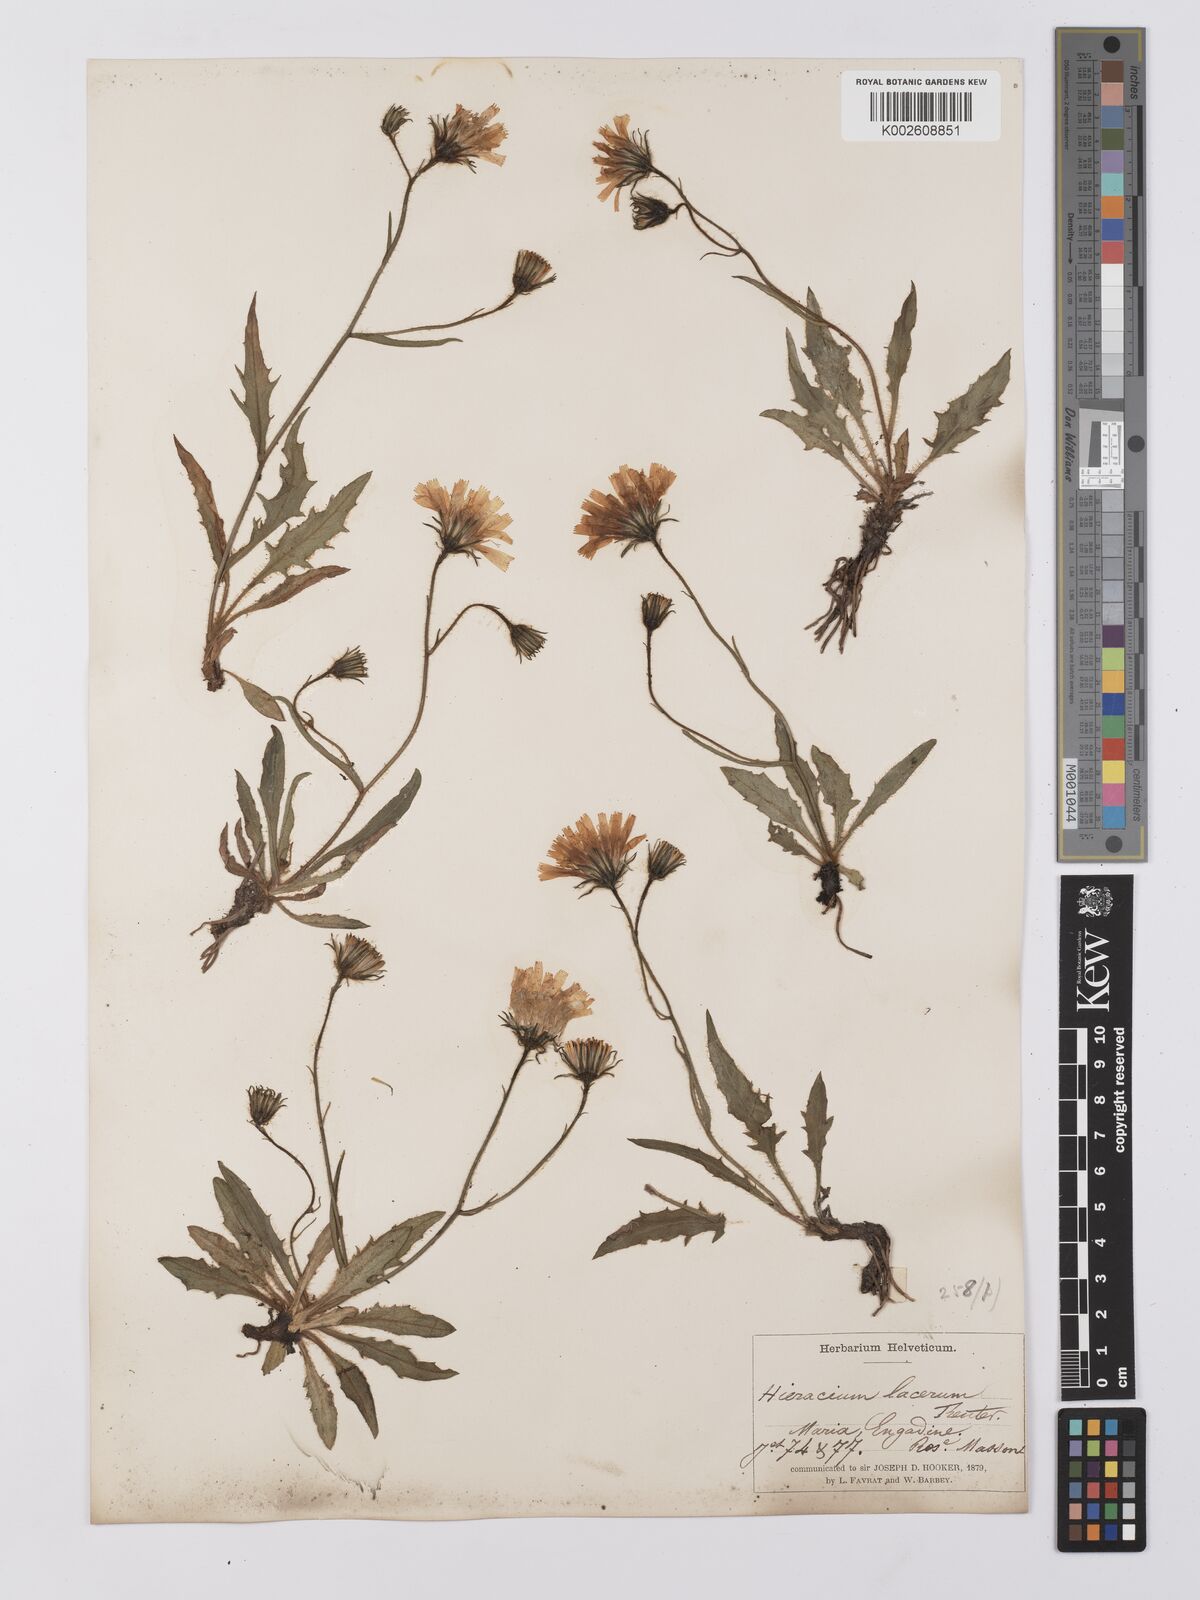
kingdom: Plantae
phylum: Tracheophyta
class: Magnoliopsida
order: Asterales
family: Asteraceae
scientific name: Asteraceae
